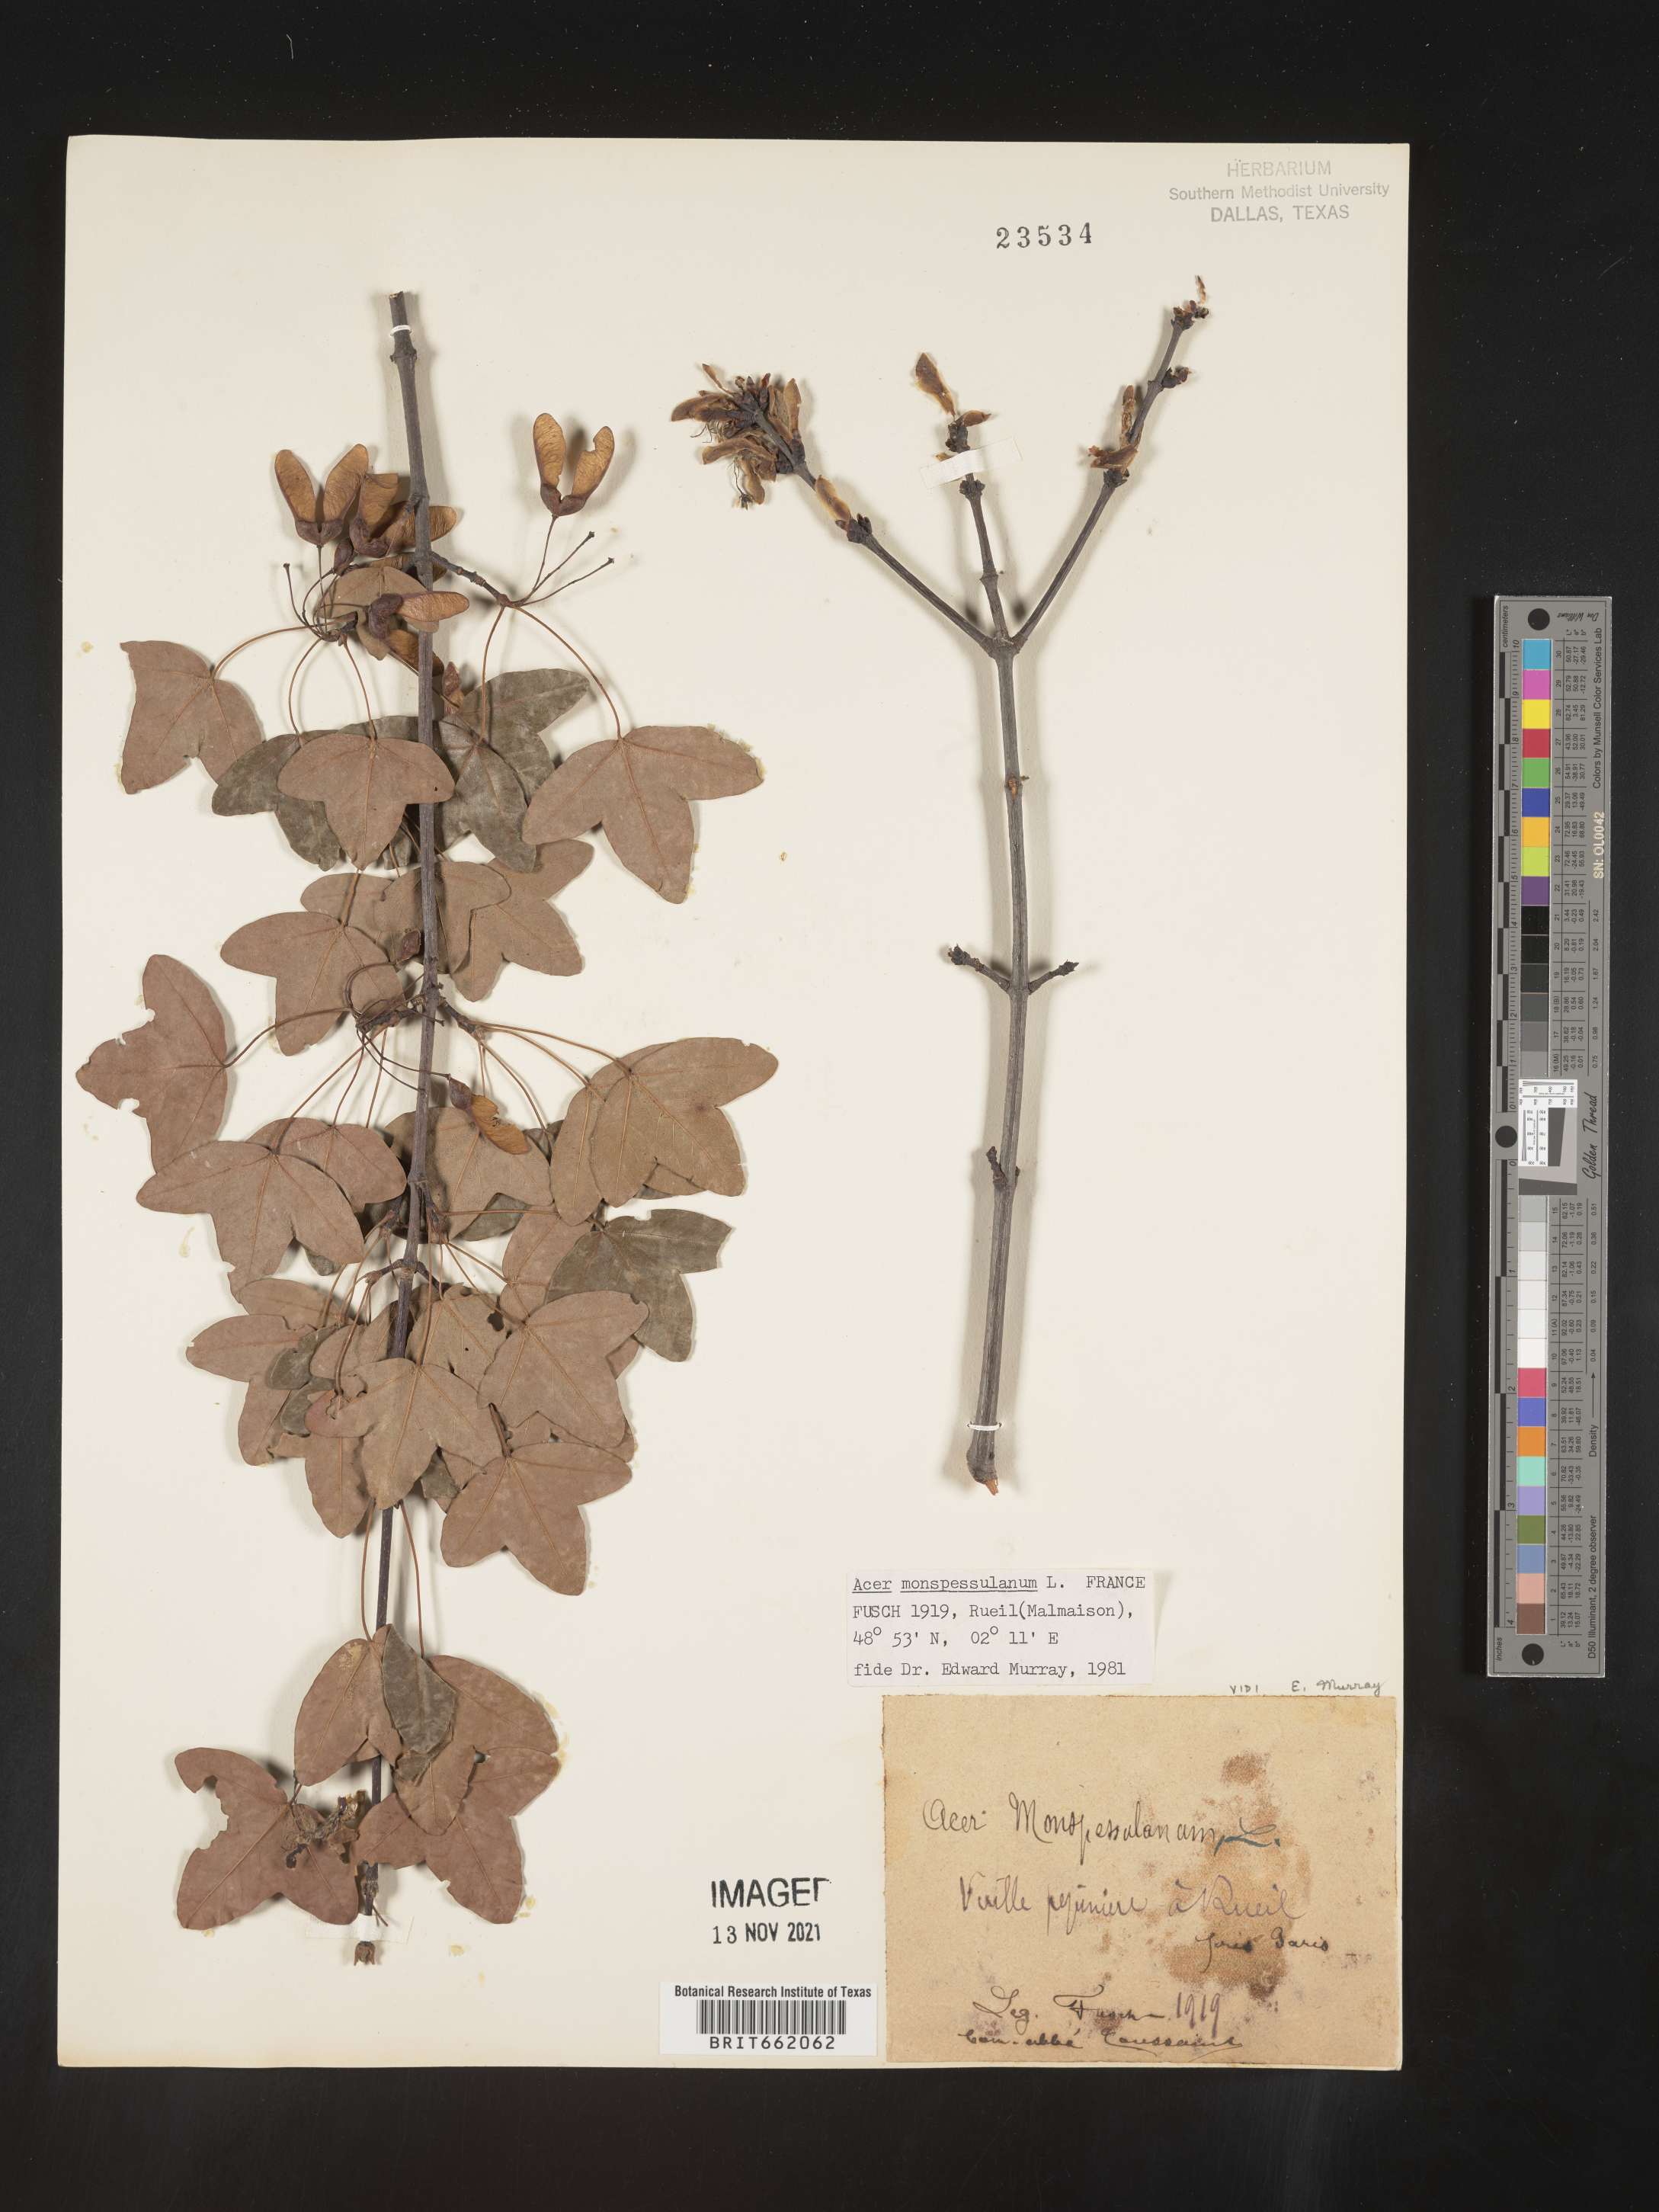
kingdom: Plantae
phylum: Tracheophyta
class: Magnoliopsida
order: Sapindales
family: Sapindaceae
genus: Acer
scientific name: Acer
